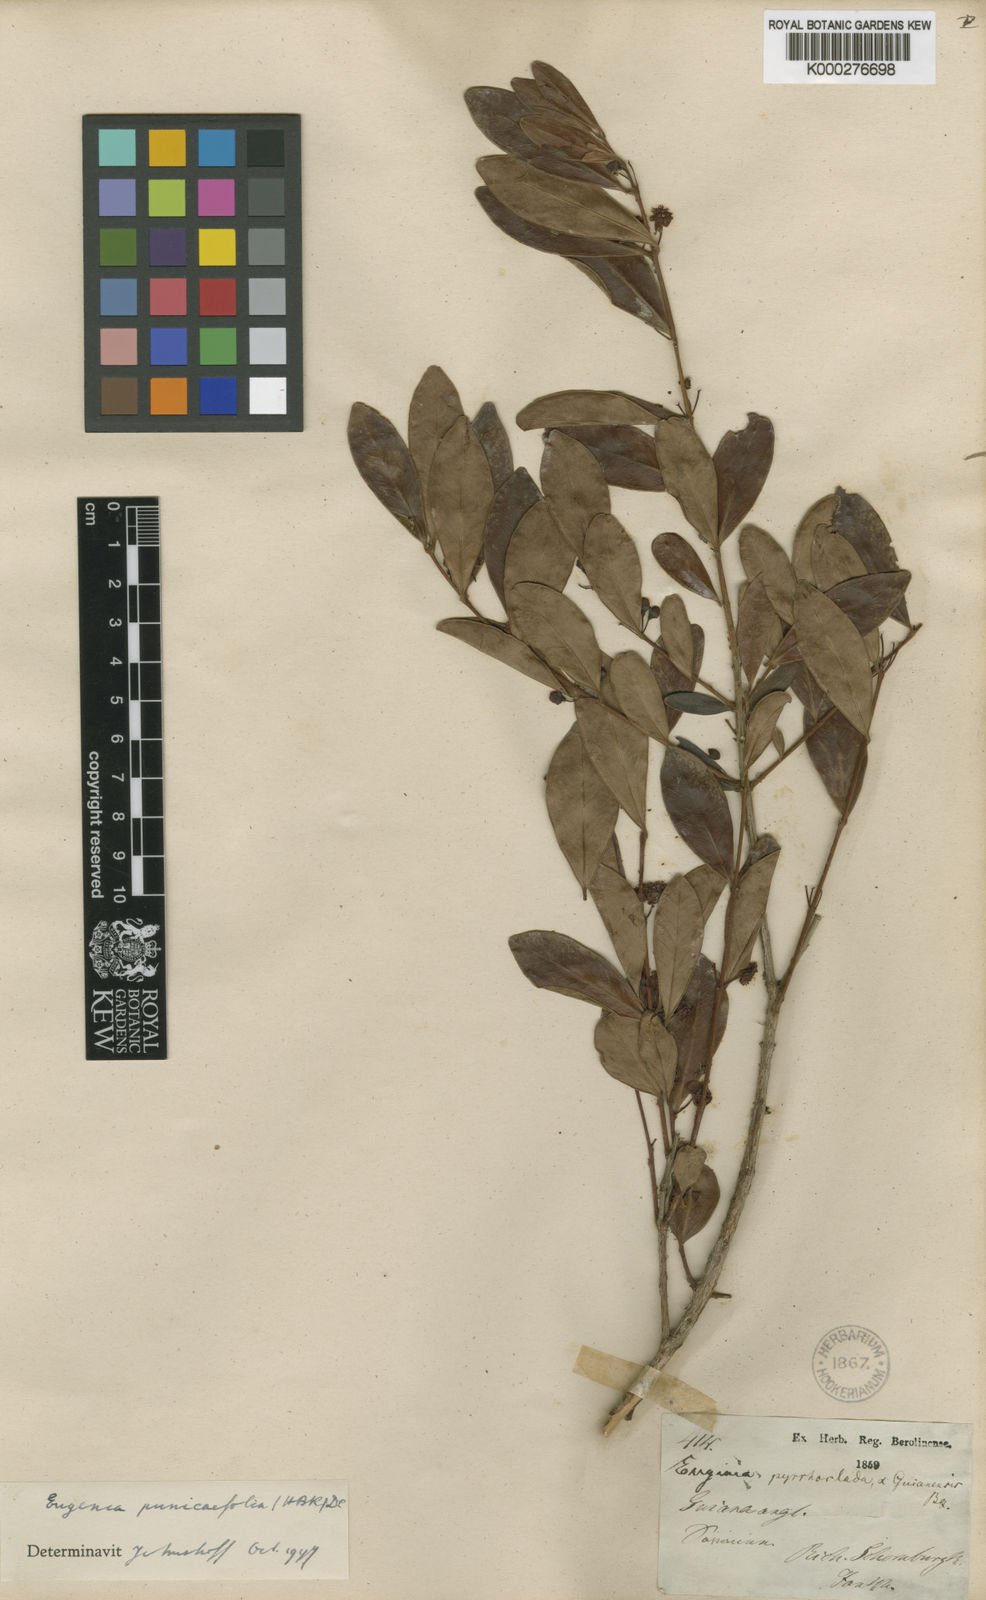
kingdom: Plantae
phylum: Tracheophyta
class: Magnoliopsida
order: Myrtales
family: Myrtaceae
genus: Eugenia
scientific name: Eugenia punicifolia
